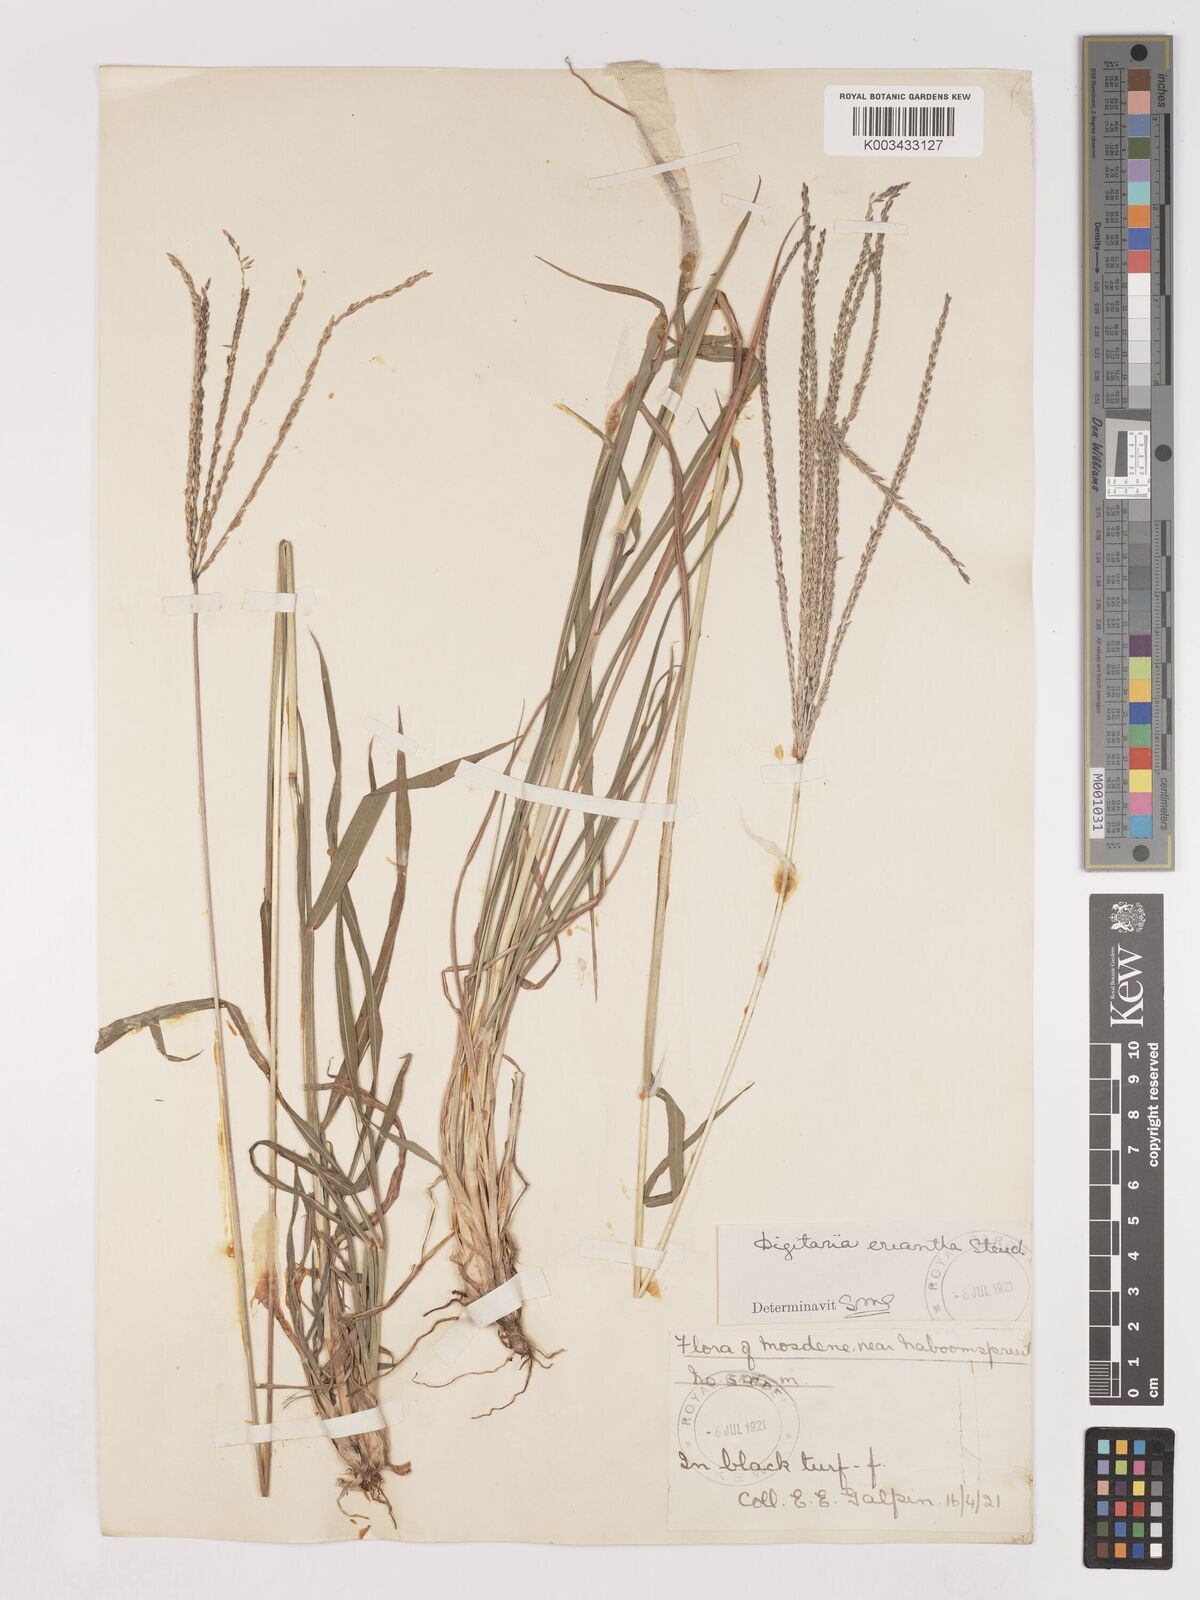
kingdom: Plantae
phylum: Tracheophyta
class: Liliopsida
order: Poales
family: Poaceae
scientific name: Poaceae
